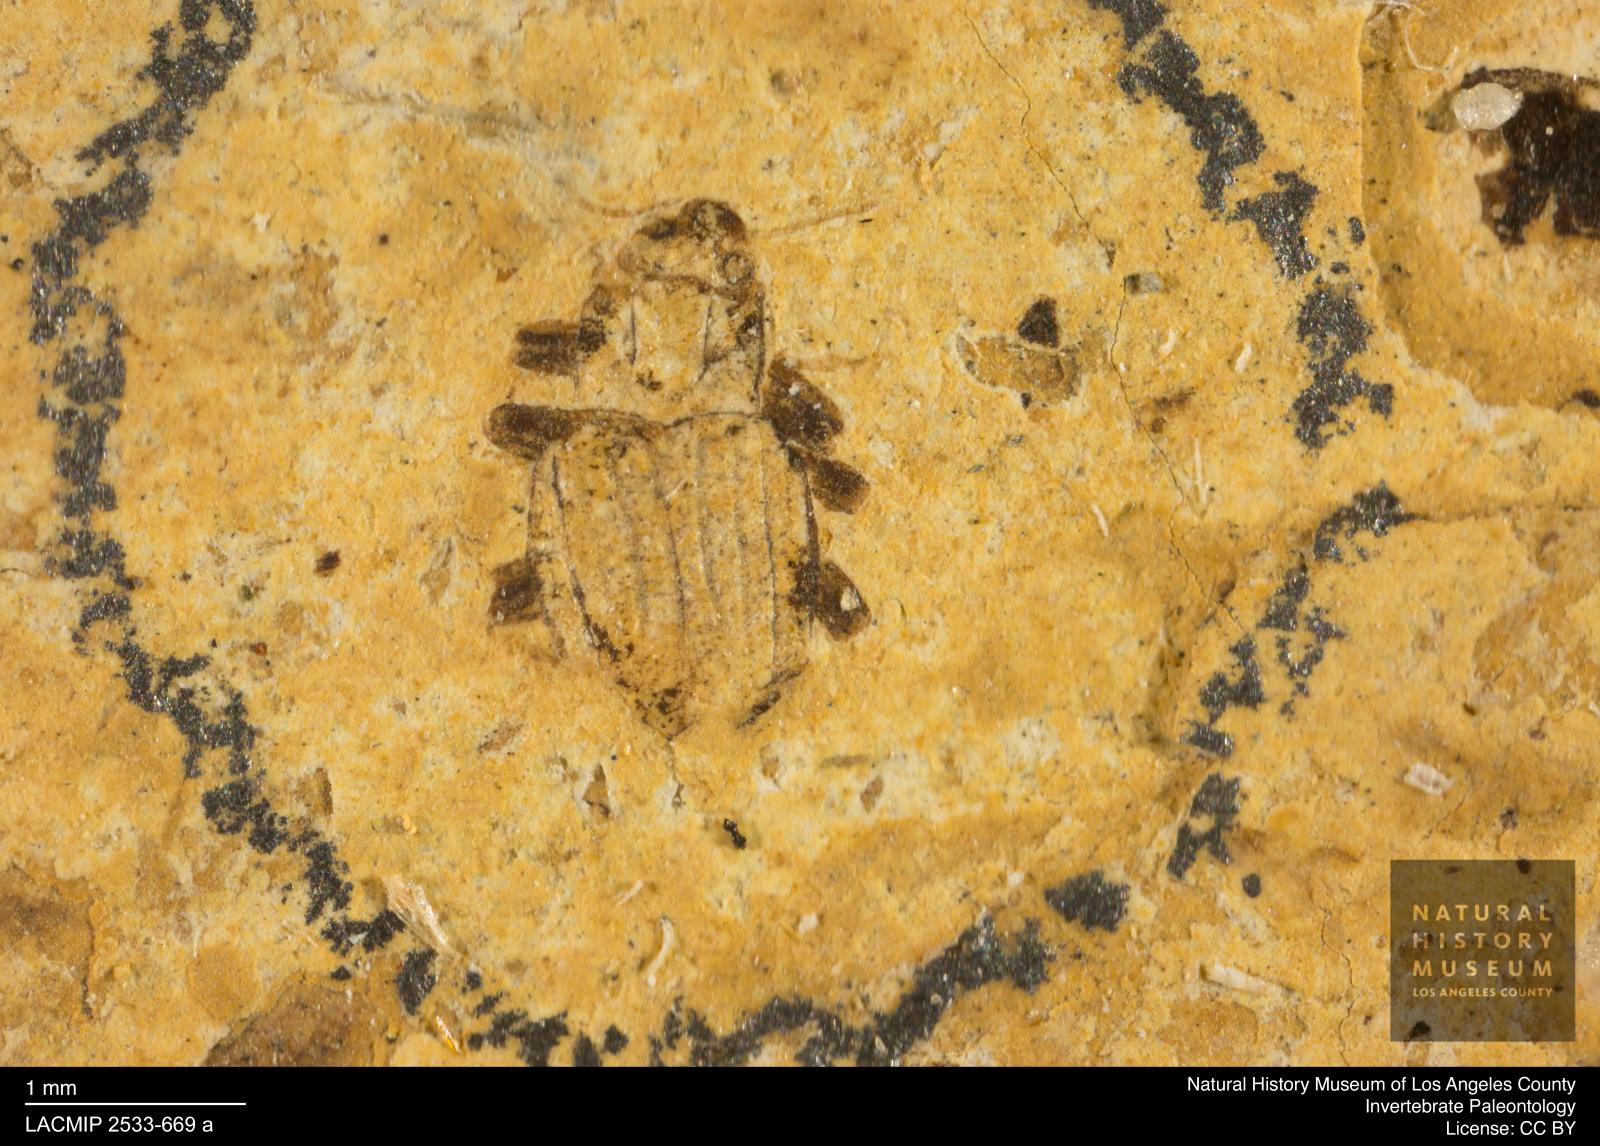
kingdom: Animalia
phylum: Arthropoda
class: Insecta
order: Coleoptera
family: Elmidae
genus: Elmis
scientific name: Elmis Helmis decoratus
